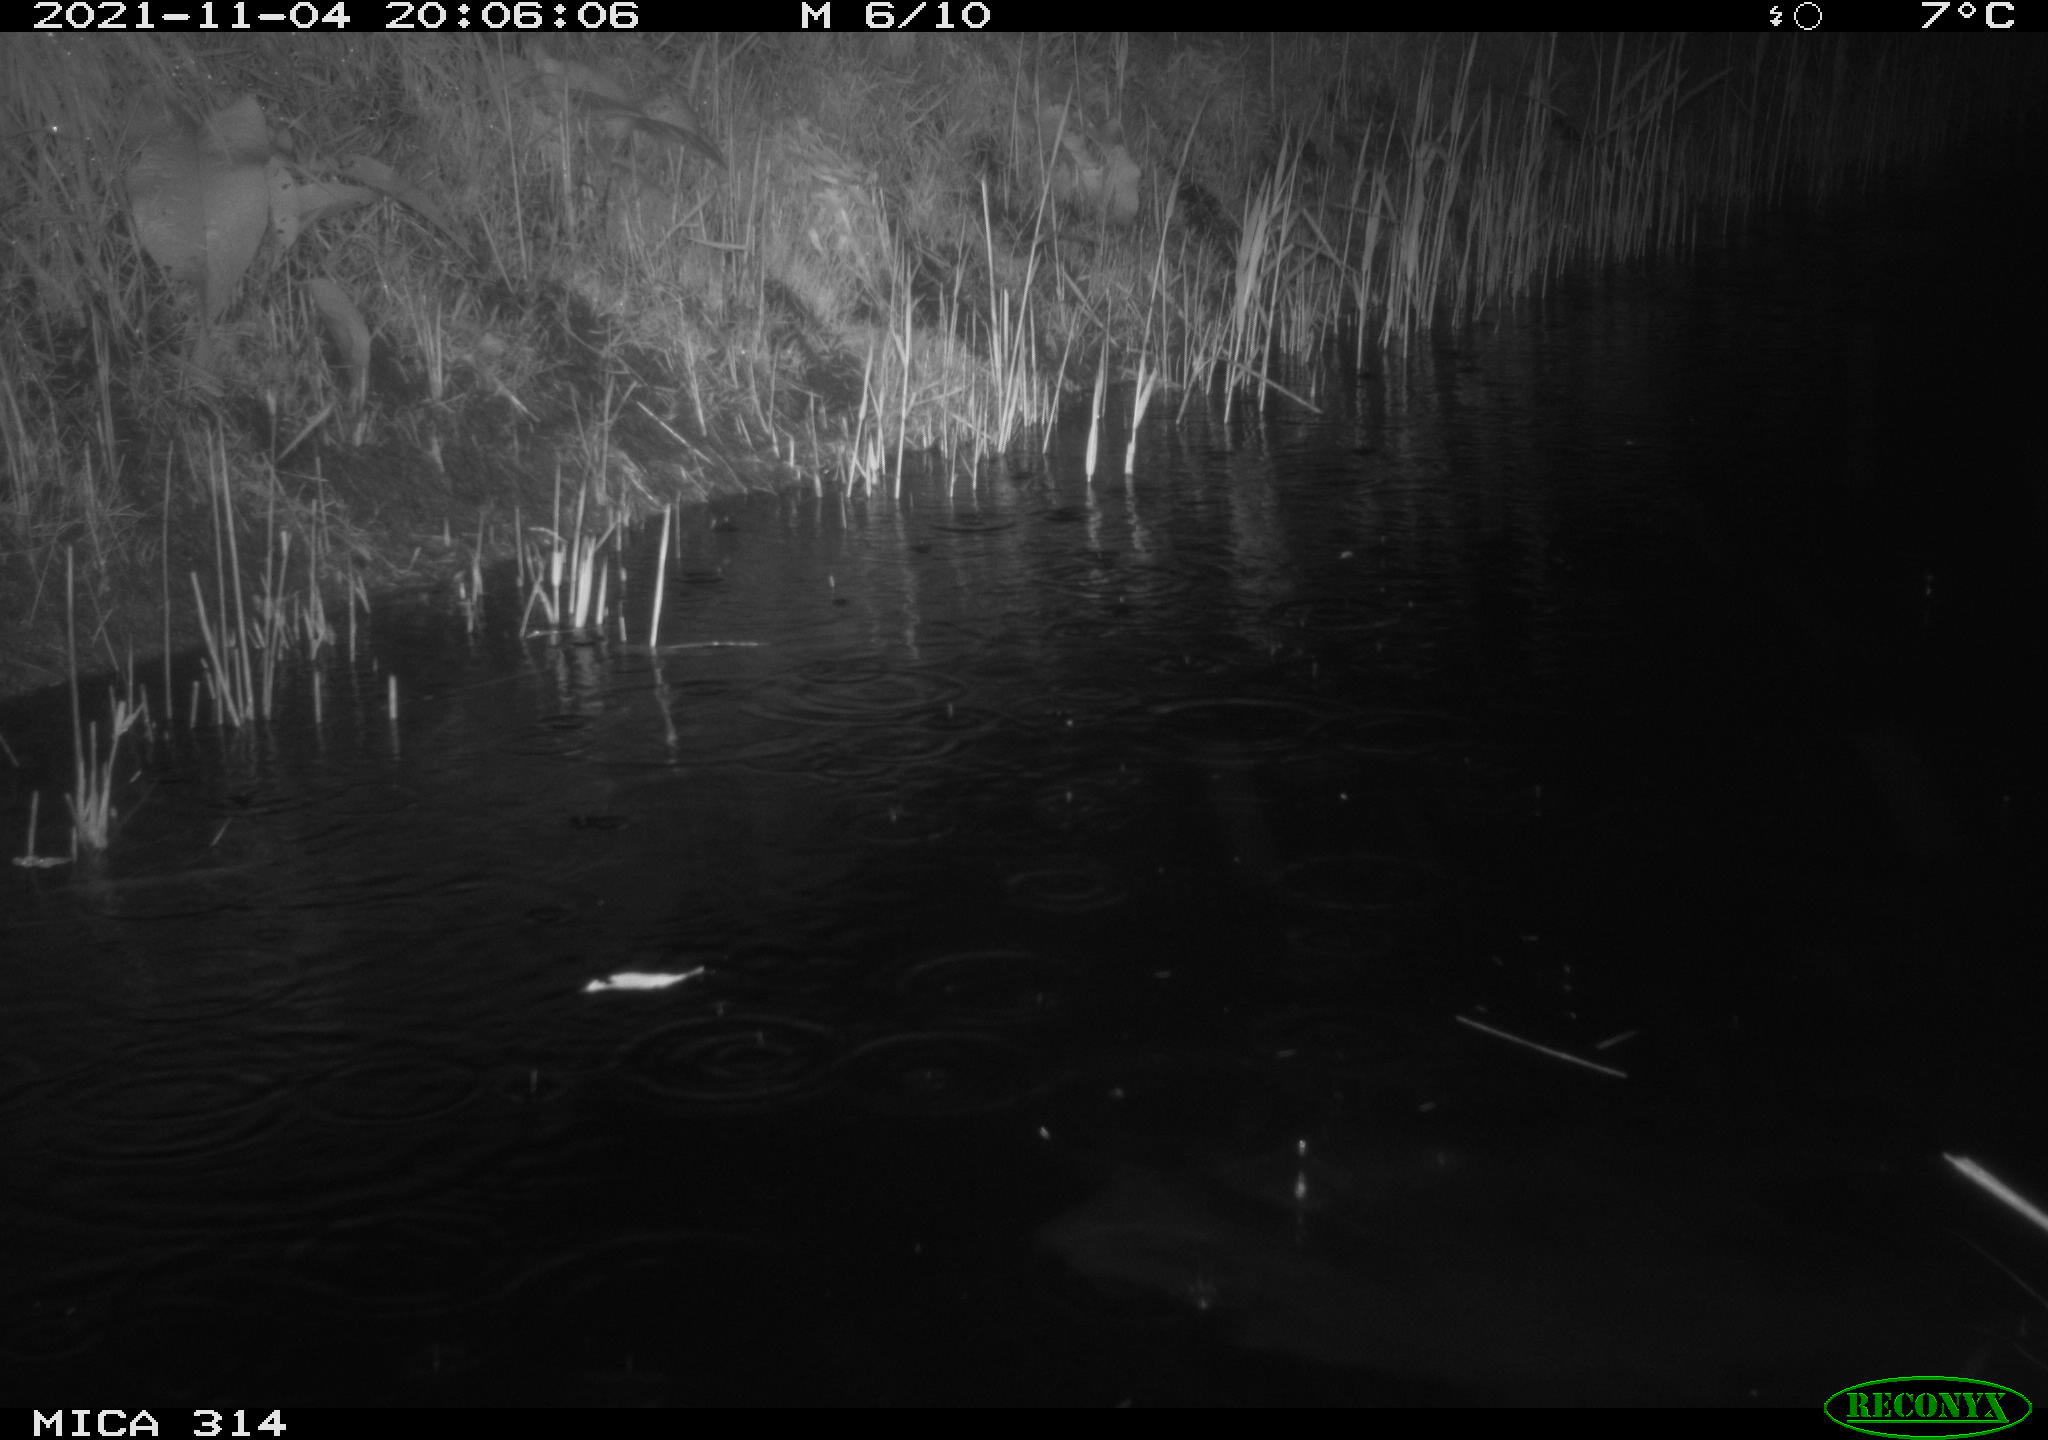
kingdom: Animalia
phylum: Chordata
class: Mammalia
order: Rodentia
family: Muridae
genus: Rattus
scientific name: Rattus norvegicus
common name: Brown rat
